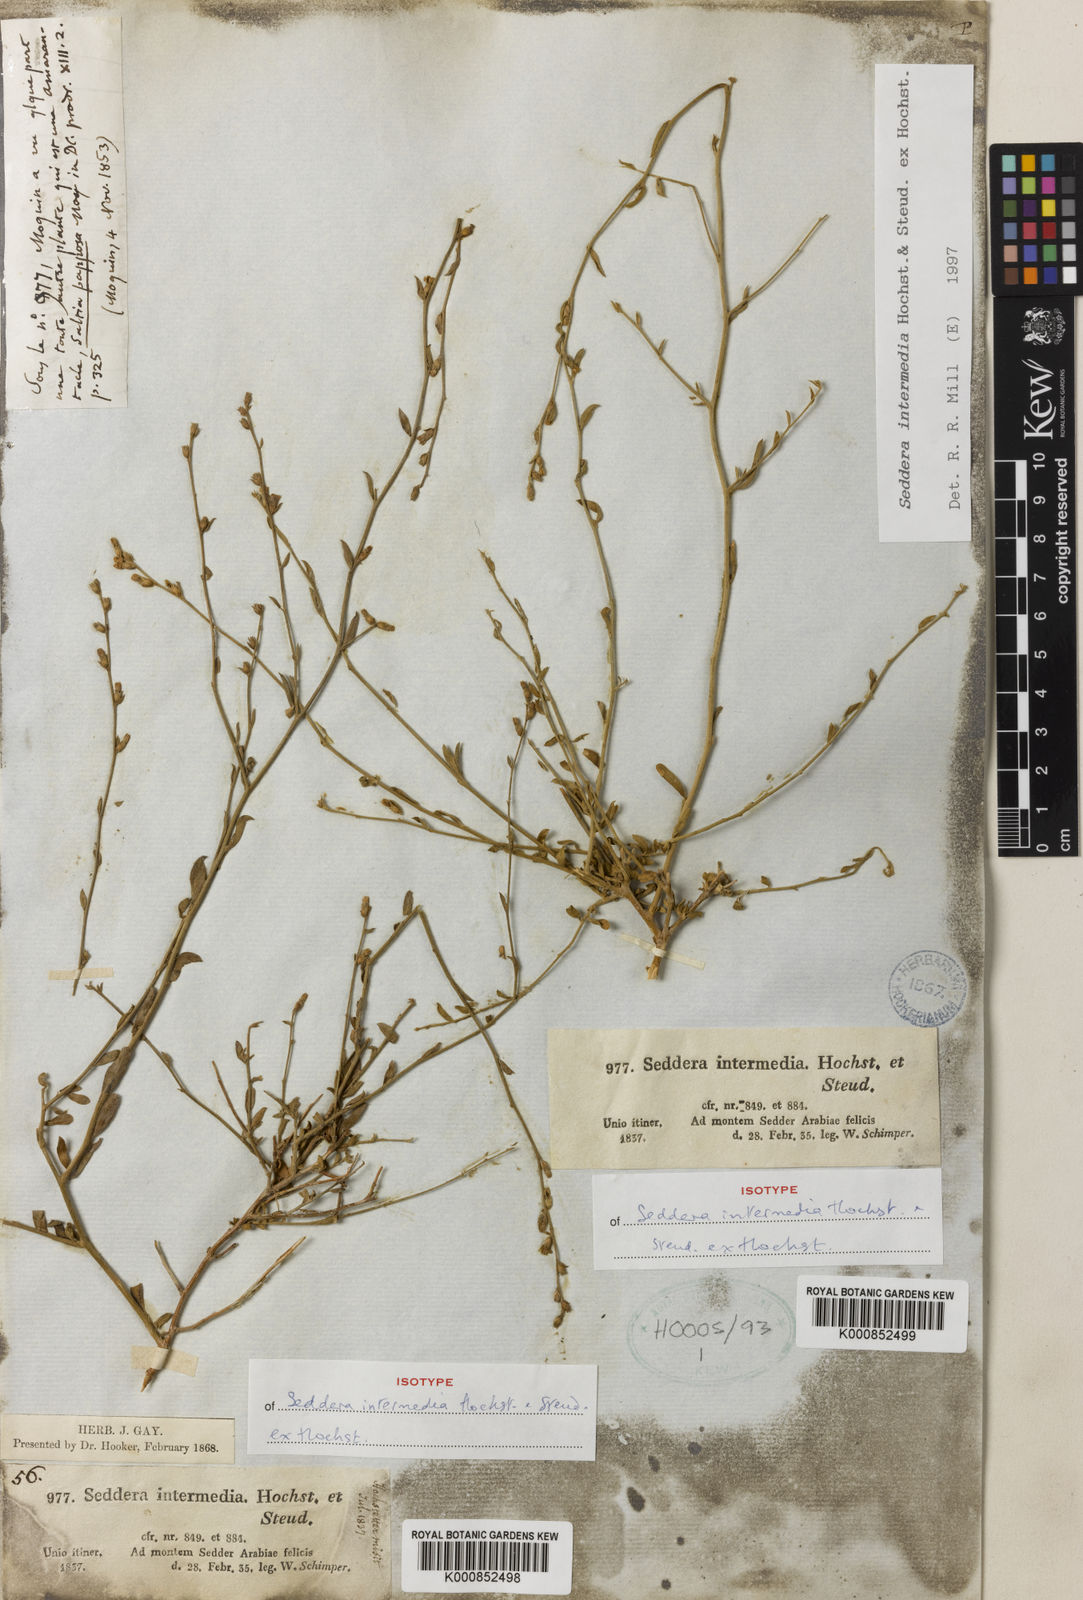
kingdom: Plantae
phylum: Tracheophyta
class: Magnoliopsida
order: Solanales
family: Convolvulaceae
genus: Seddera
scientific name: Seddera intermedia
